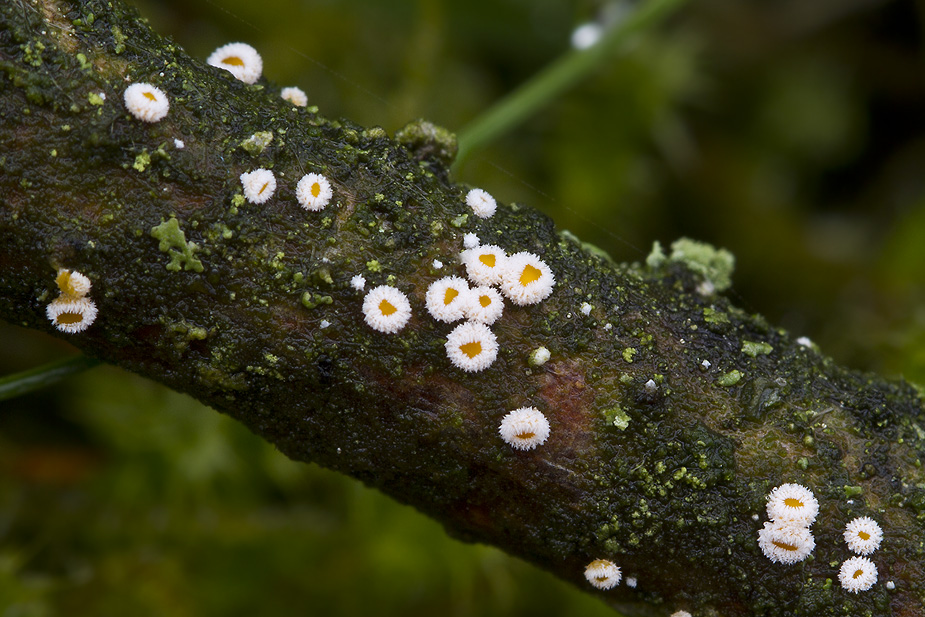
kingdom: Fungi
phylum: Ascomycota
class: Leotiomycetes
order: Helotiales
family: Lachnaceae
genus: Capitotricha
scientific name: Capitotricha bicolor
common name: prægtig frynseskive
